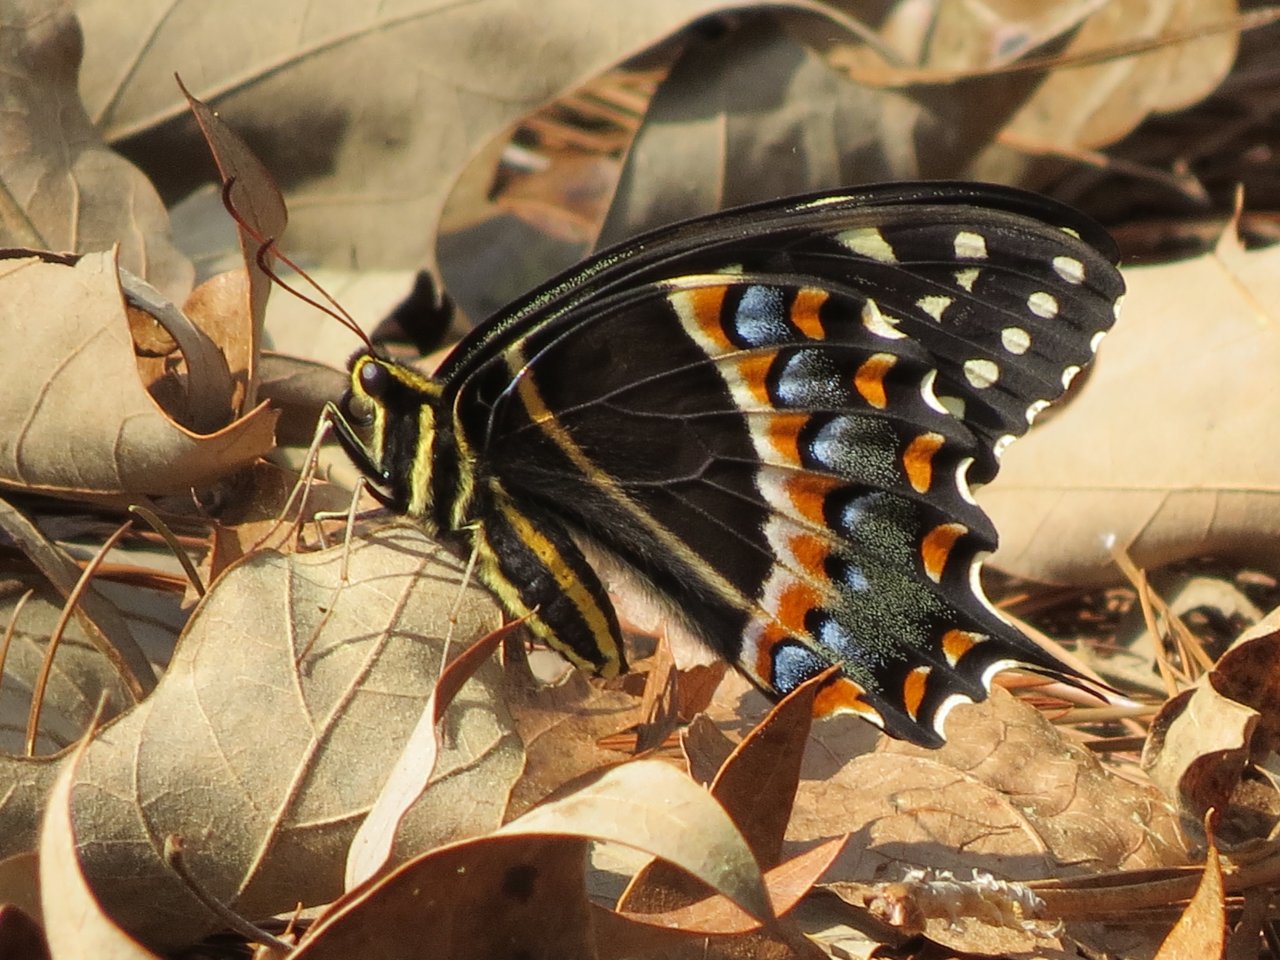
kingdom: Animalia
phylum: Arthropoda
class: Insecta
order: Lepidoptera
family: Papilionidae
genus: Pterourus
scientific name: Pterourus palamedes
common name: Palamedes Swallowtail
